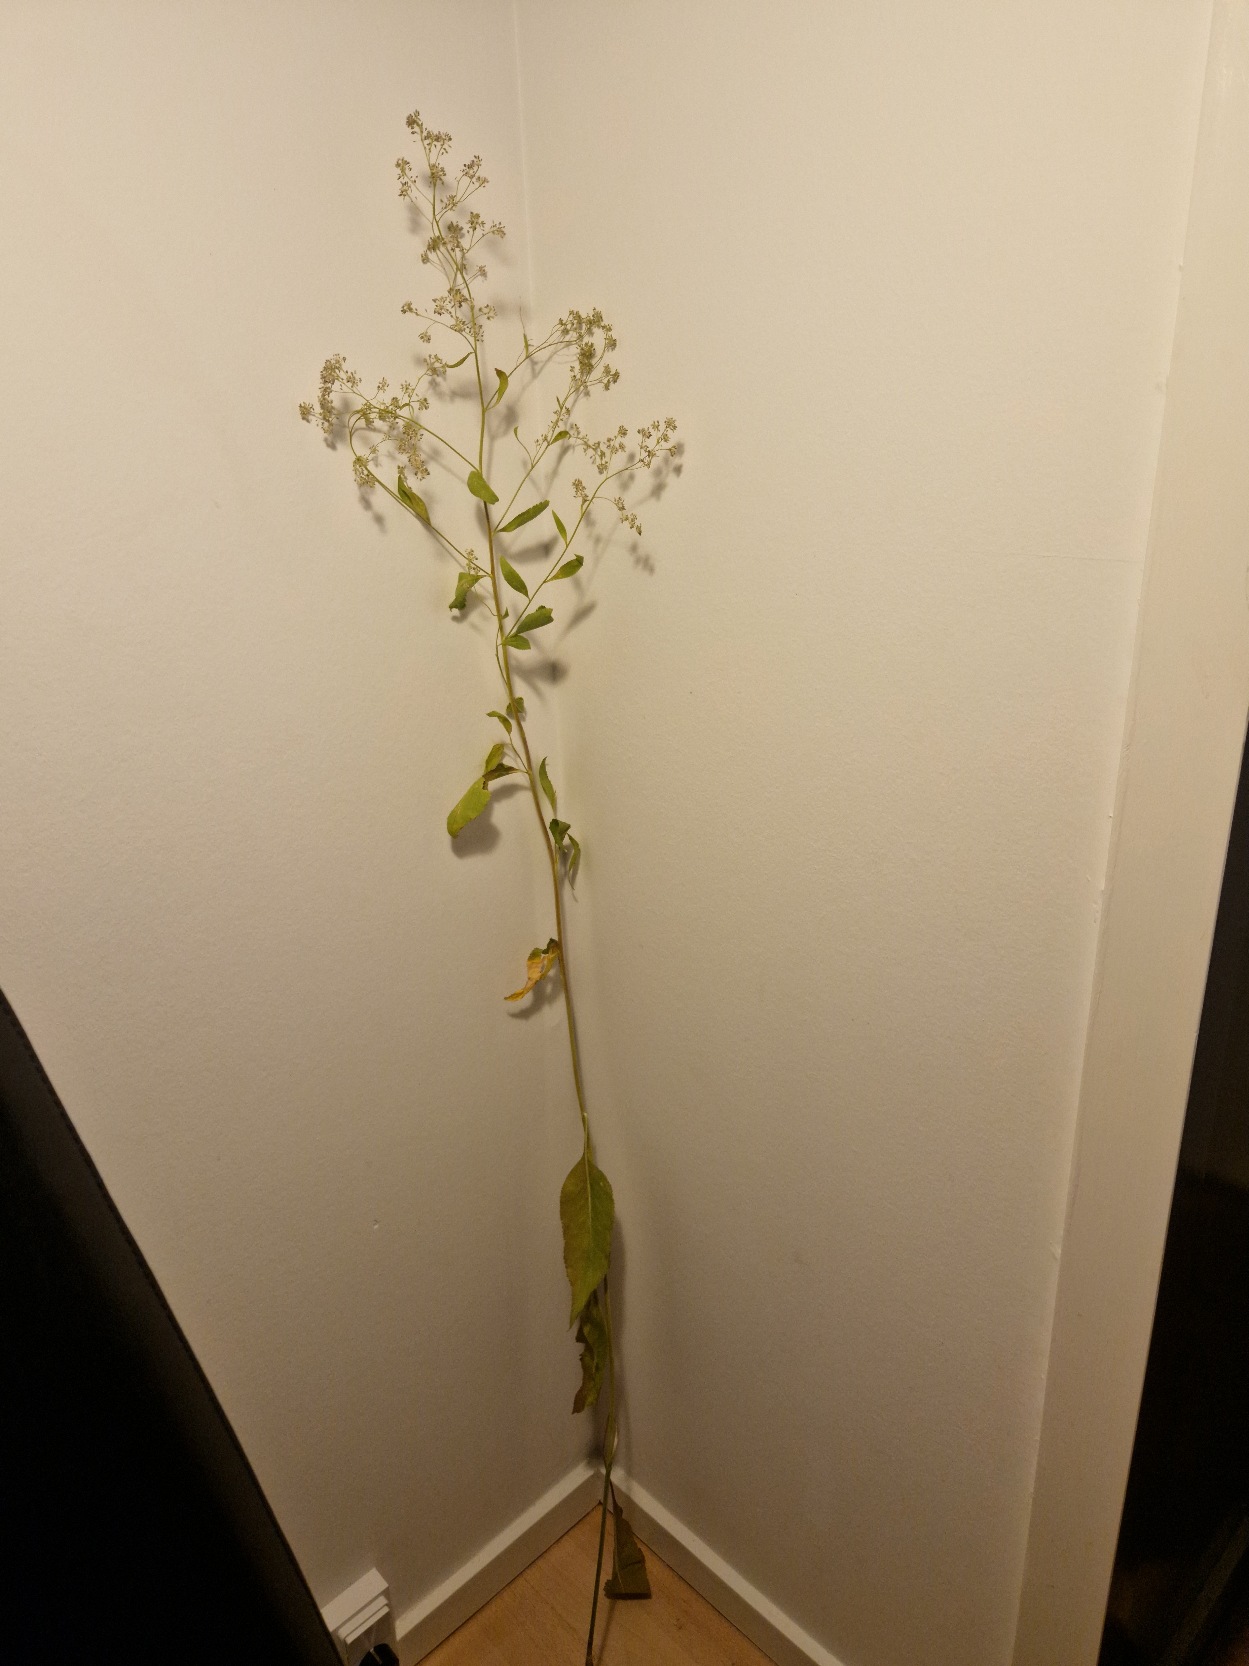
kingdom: Plantae
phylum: Tracheophyta
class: Magnoliopsida
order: Brassicales
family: Brassicaceae
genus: Lepidium
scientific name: Lepidium latifolium
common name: Strand-karse
